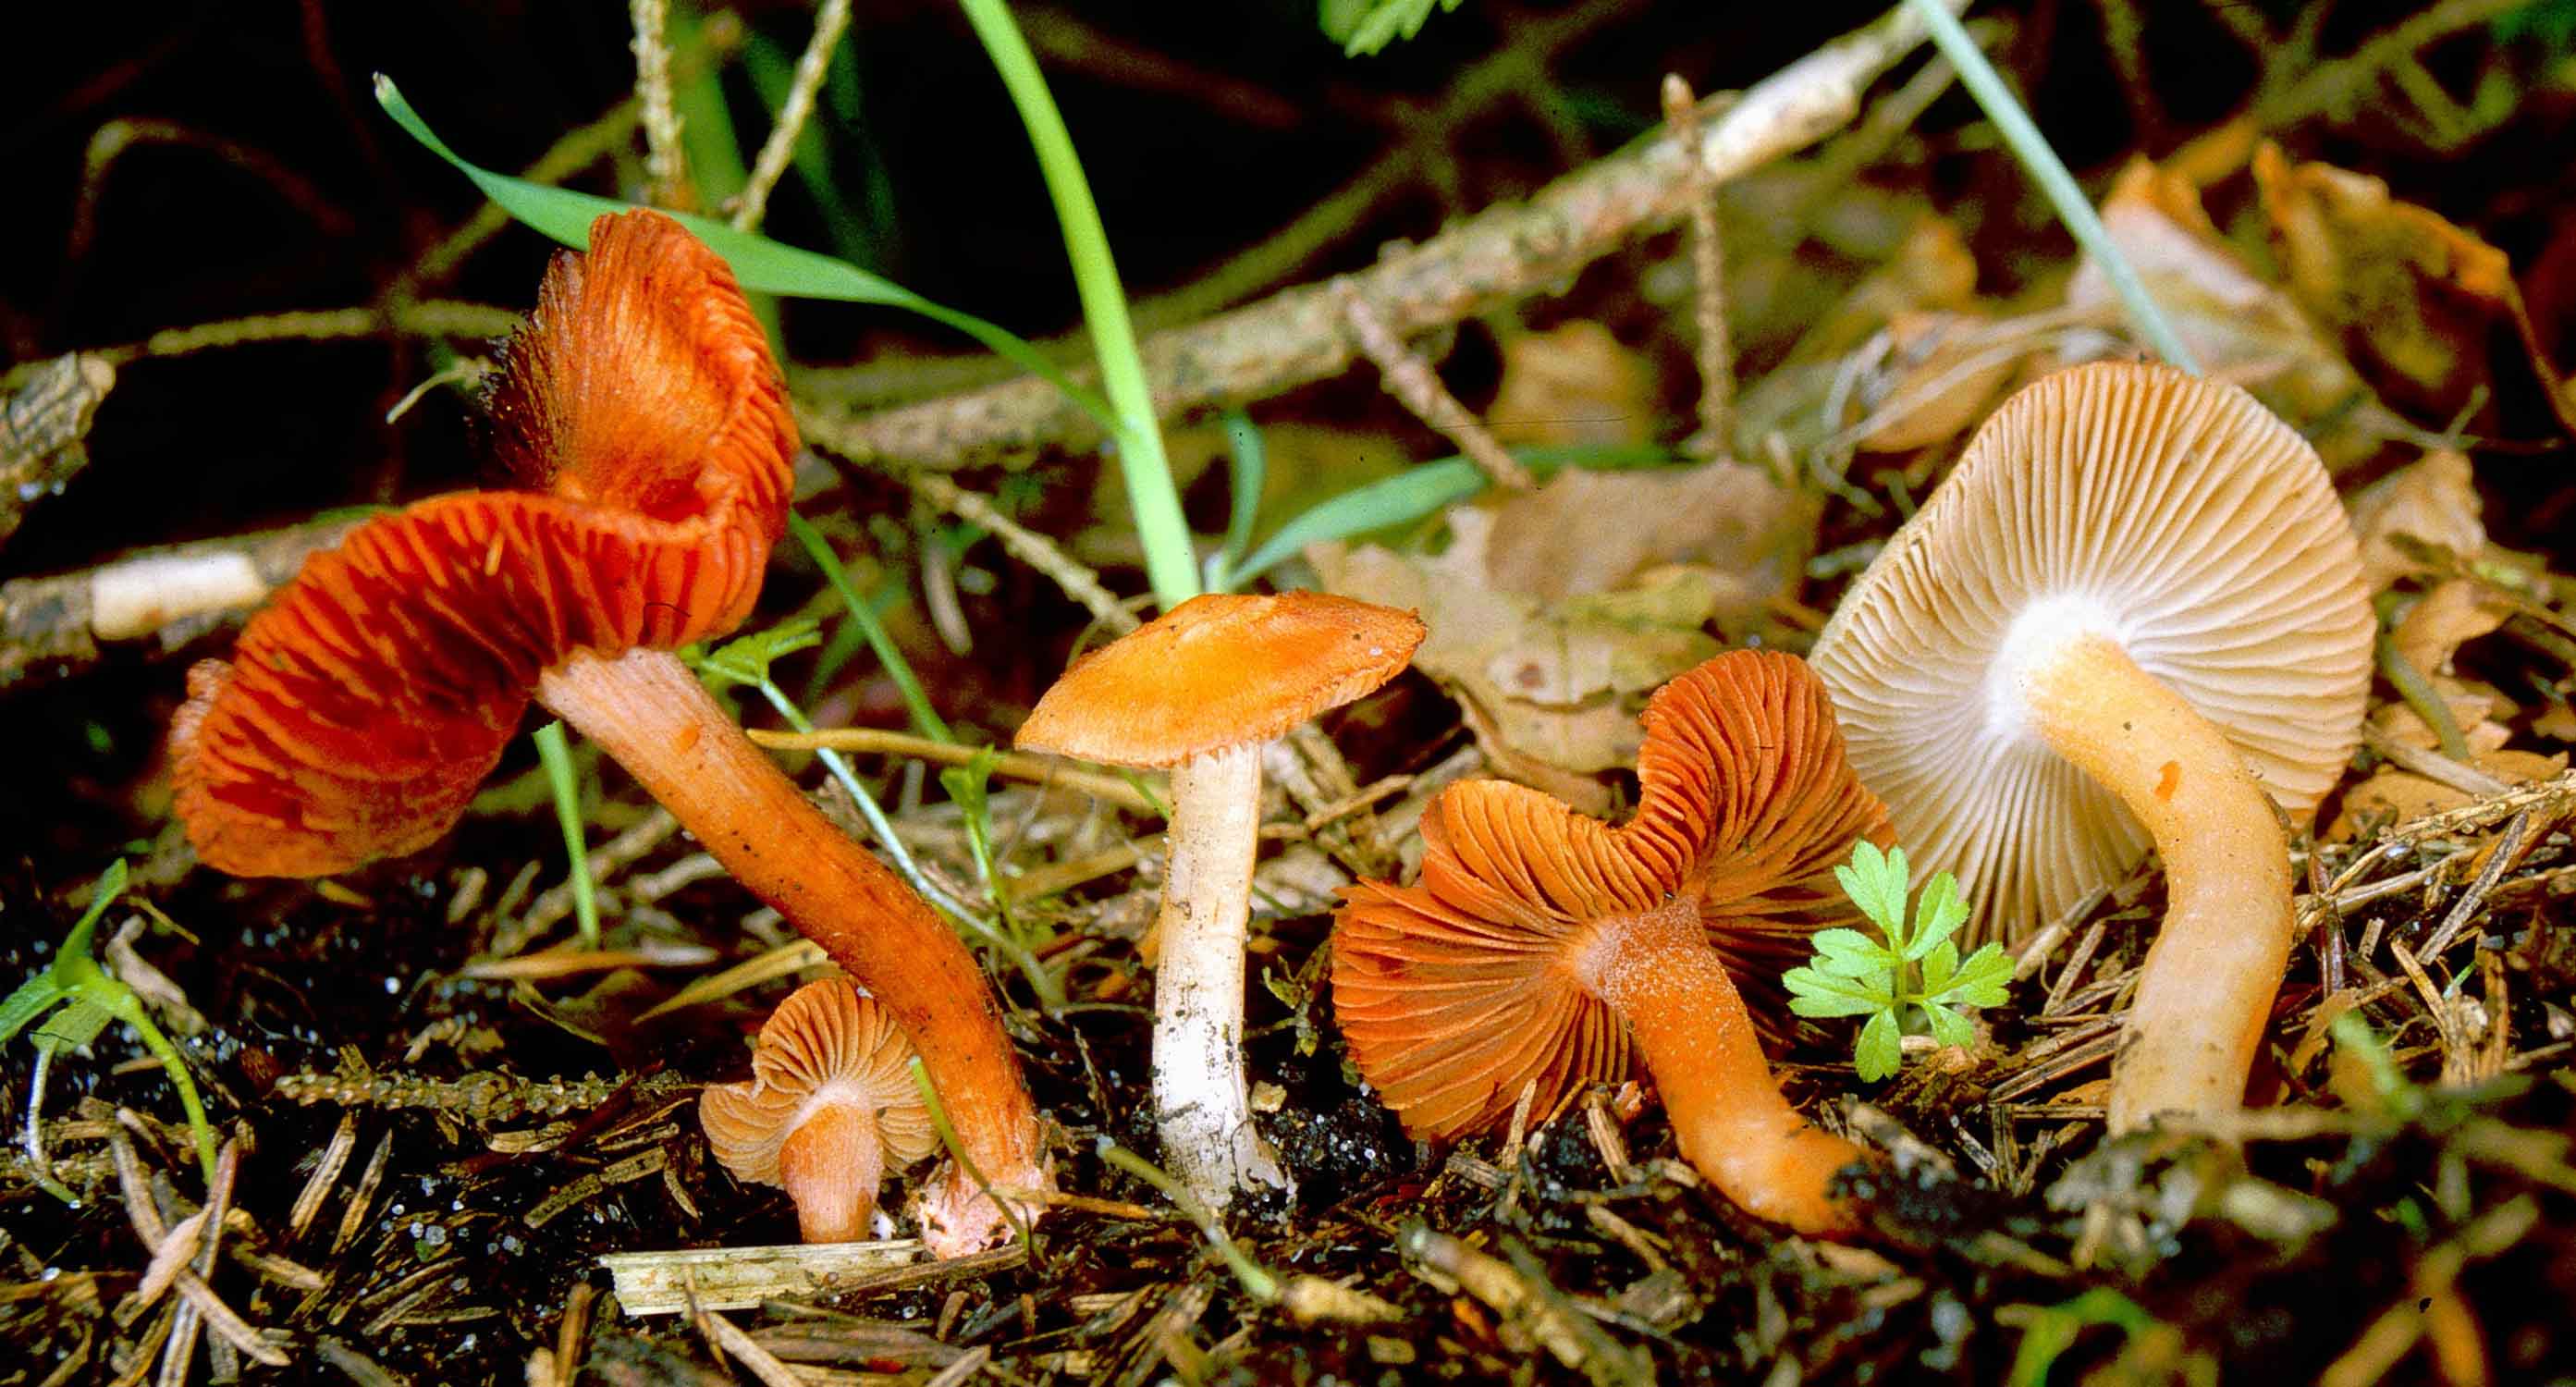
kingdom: Fungi
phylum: Basidiomycota
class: Agaricomycetes
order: Agaricales
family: Inocybaceae
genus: Inocybe
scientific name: Inocybe godeyi
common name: orangerødmende trævlhat
